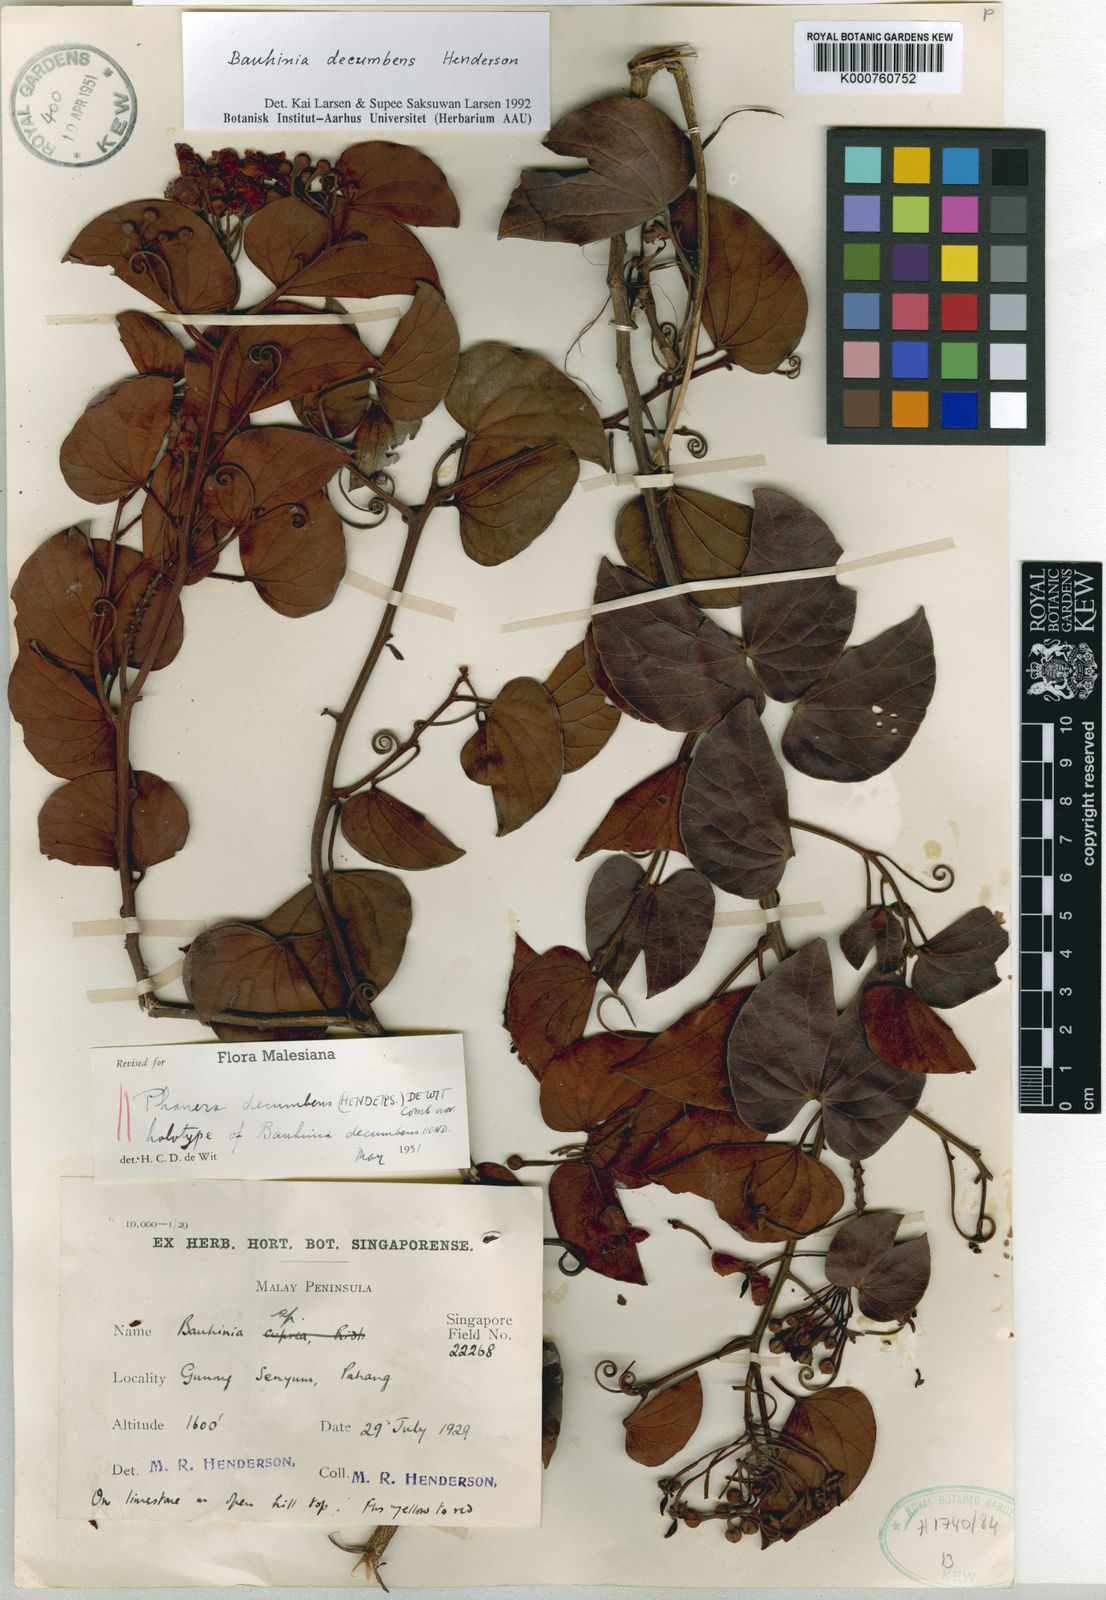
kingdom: Plantae
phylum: Tracheophyta
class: Magnoliopsida
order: Fabales
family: Fabaceae
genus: Phanera
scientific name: Phanera decumbens
